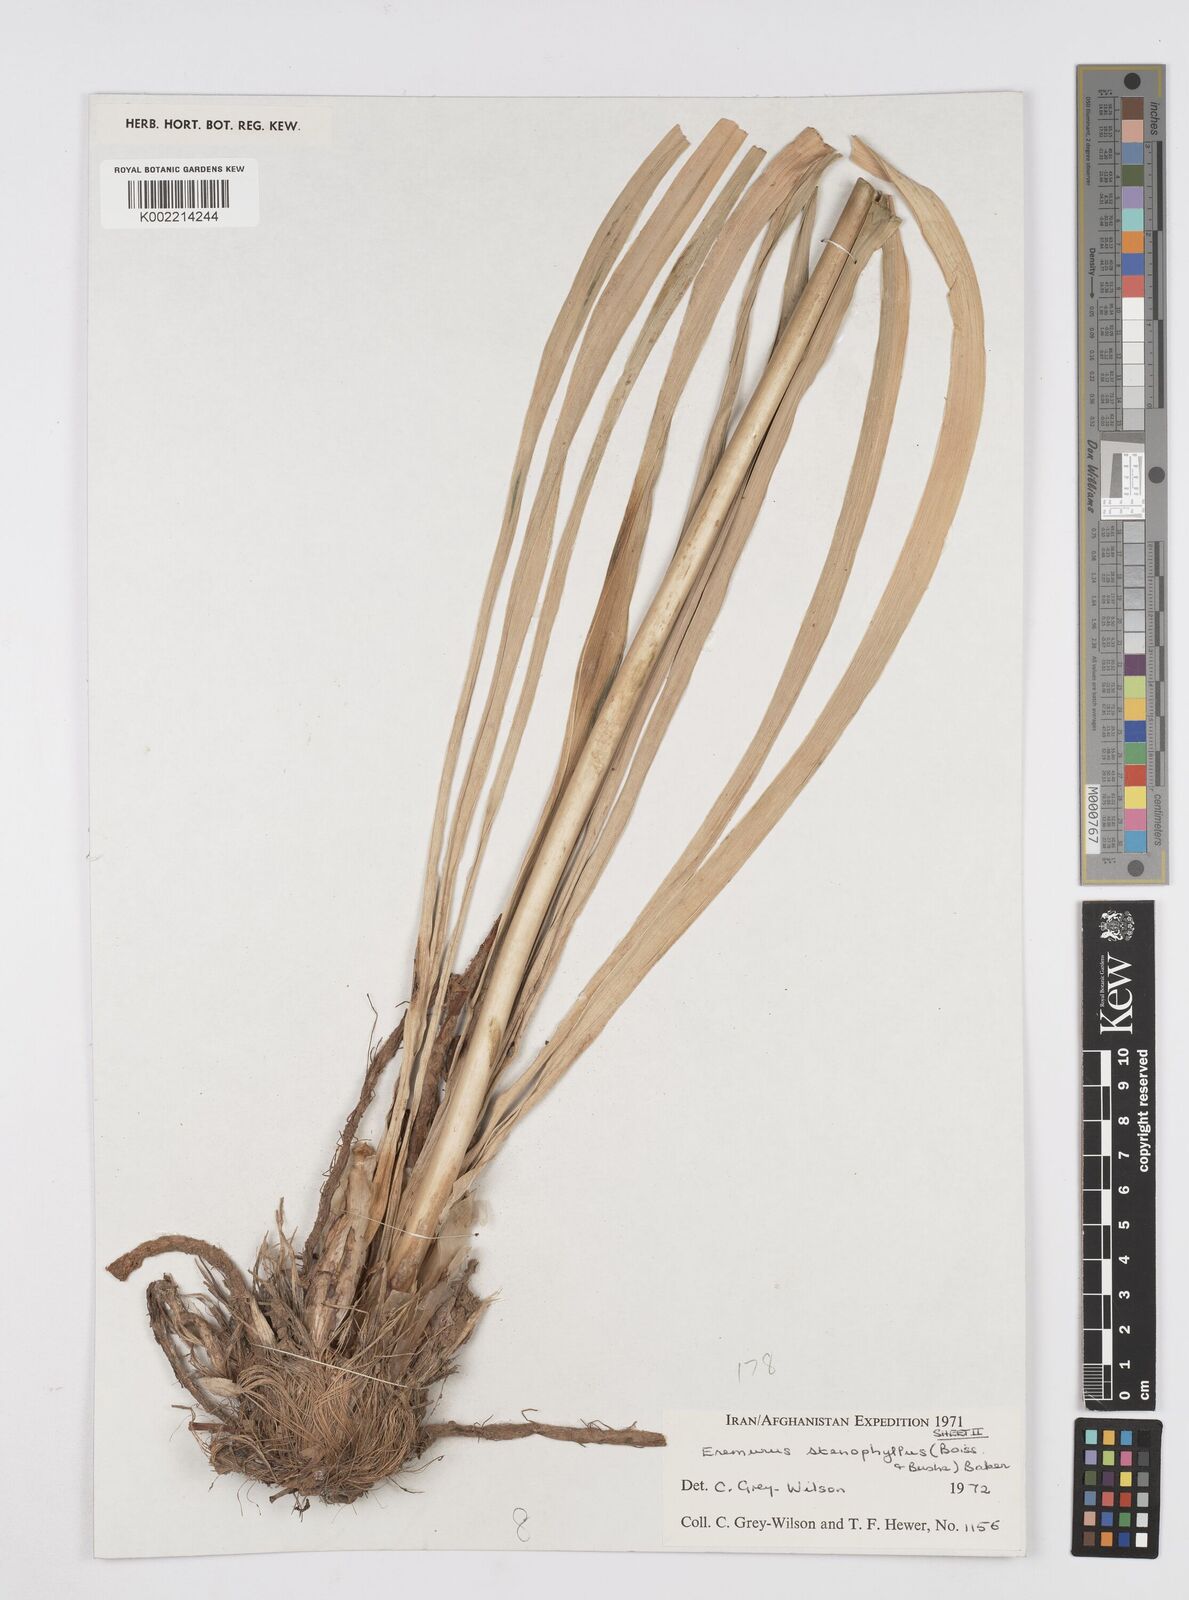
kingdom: Plantae
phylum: Tracheophyta
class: Liliopsida
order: Asparagales
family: Asphodelaceae
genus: Eremurus
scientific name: Eremurus stenophyllus
